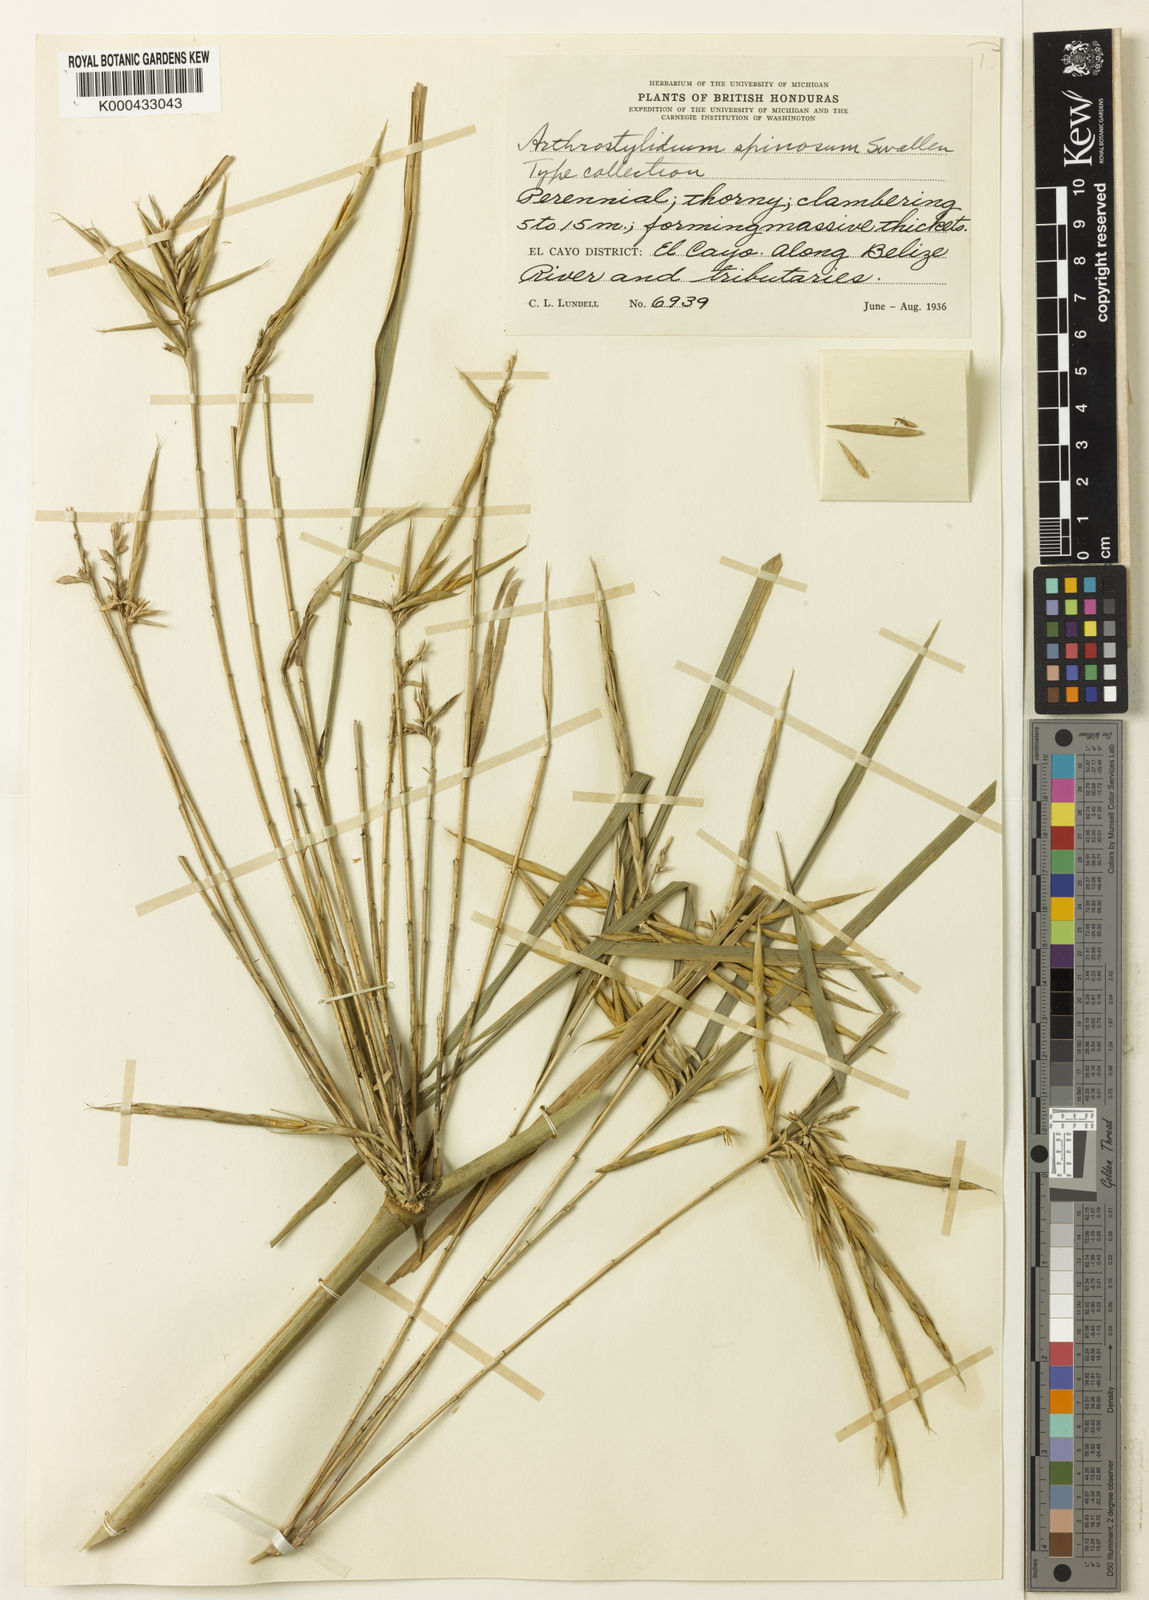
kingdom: Plantae
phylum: Tracheophyta
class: Liliopsida
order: Poales
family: Poaceae
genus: Guadua
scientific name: Guadua longifolia
